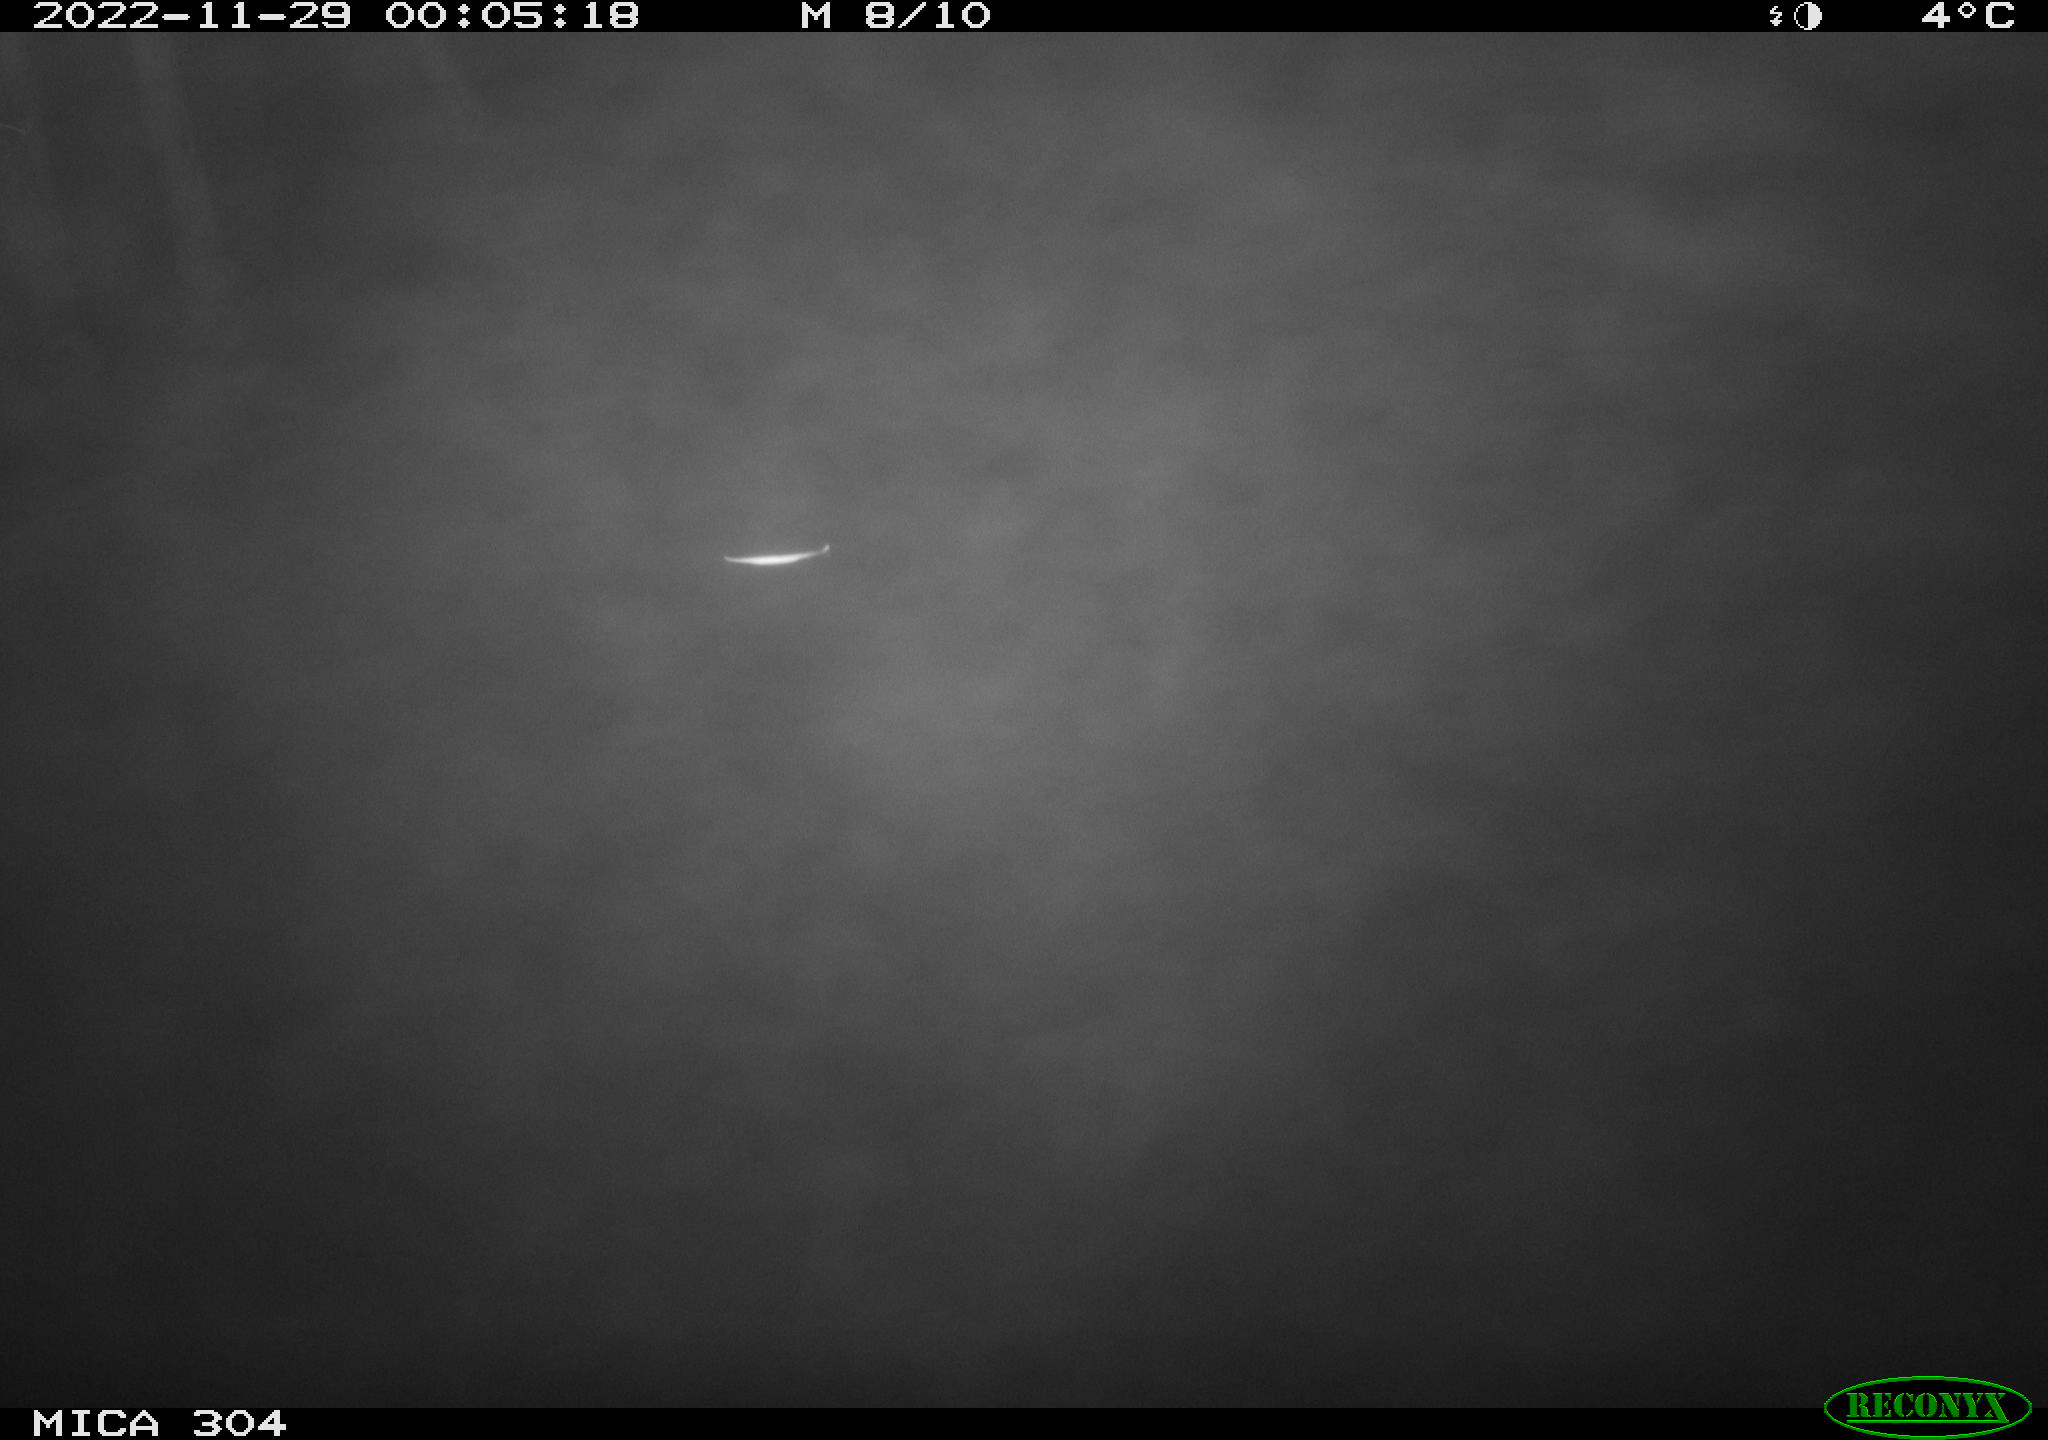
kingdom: Animalia
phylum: Chordata
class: Mammalia
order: Rodentia
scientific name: Rodentia
